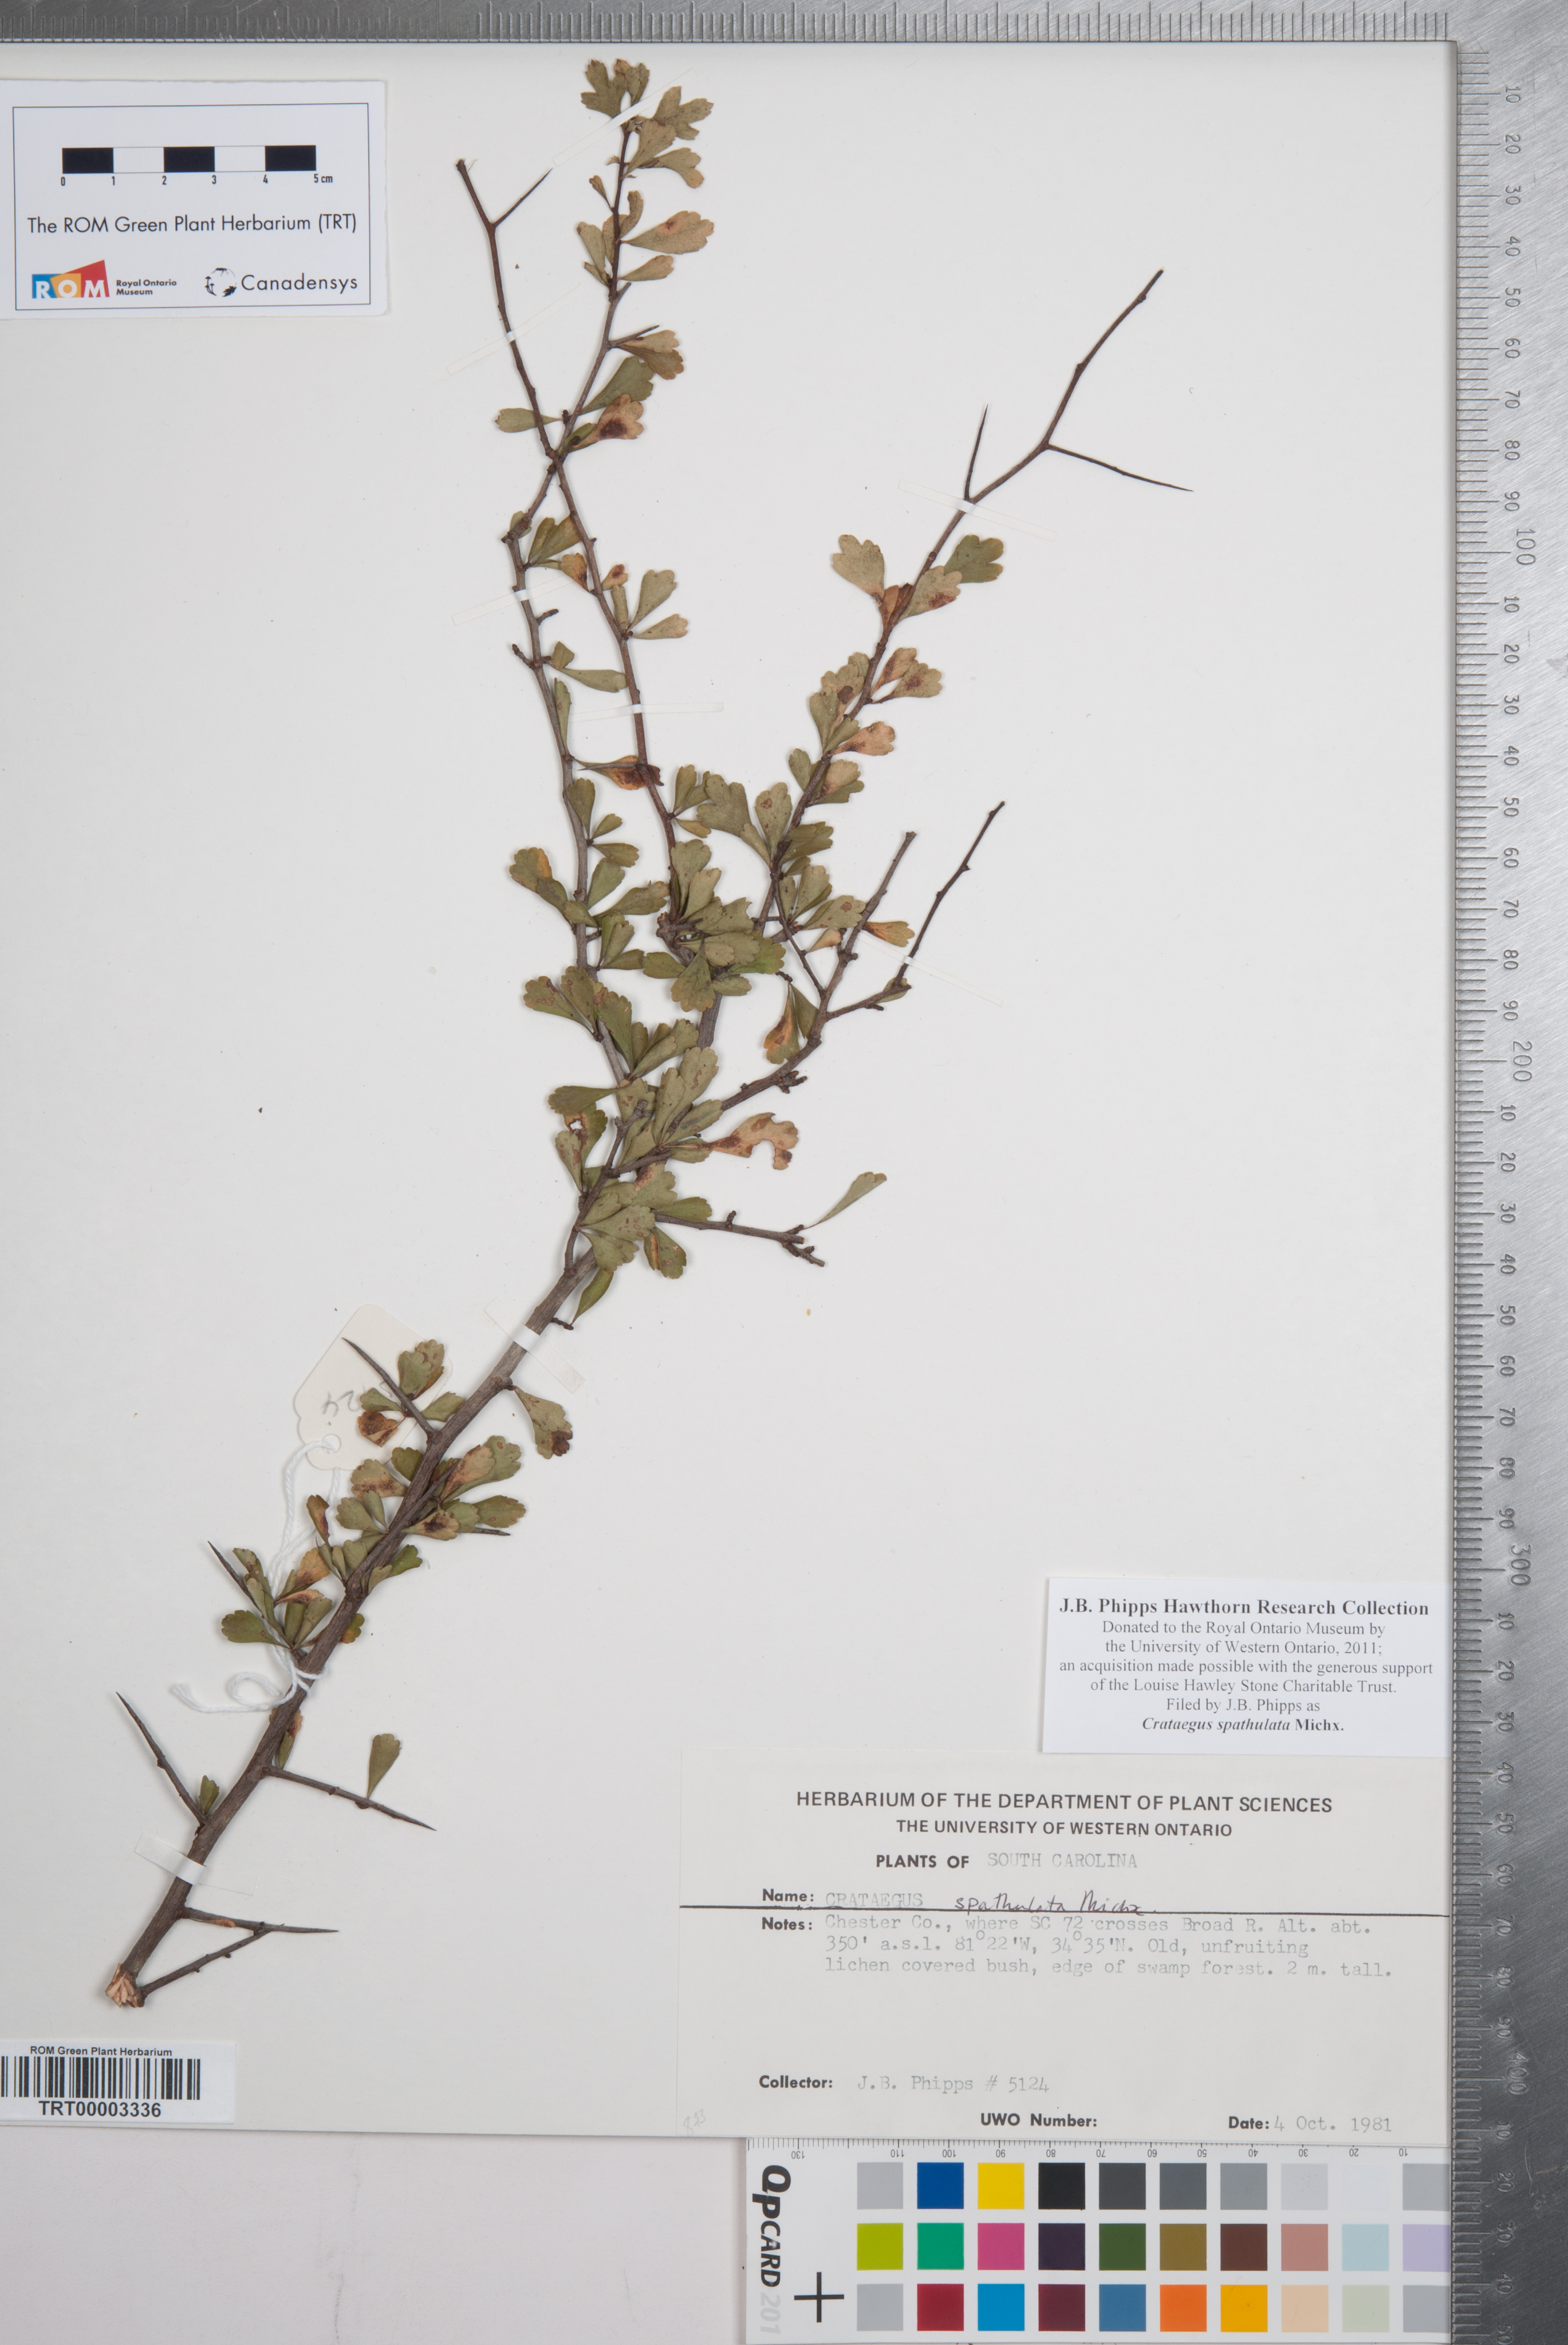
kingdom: Plantae
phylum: Tracheophyta
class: Magnoliopsida
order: Rosales
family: Rosaceae
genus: Crataegus
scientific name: Crataegus spathulata
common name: Littlehip hawthorn
